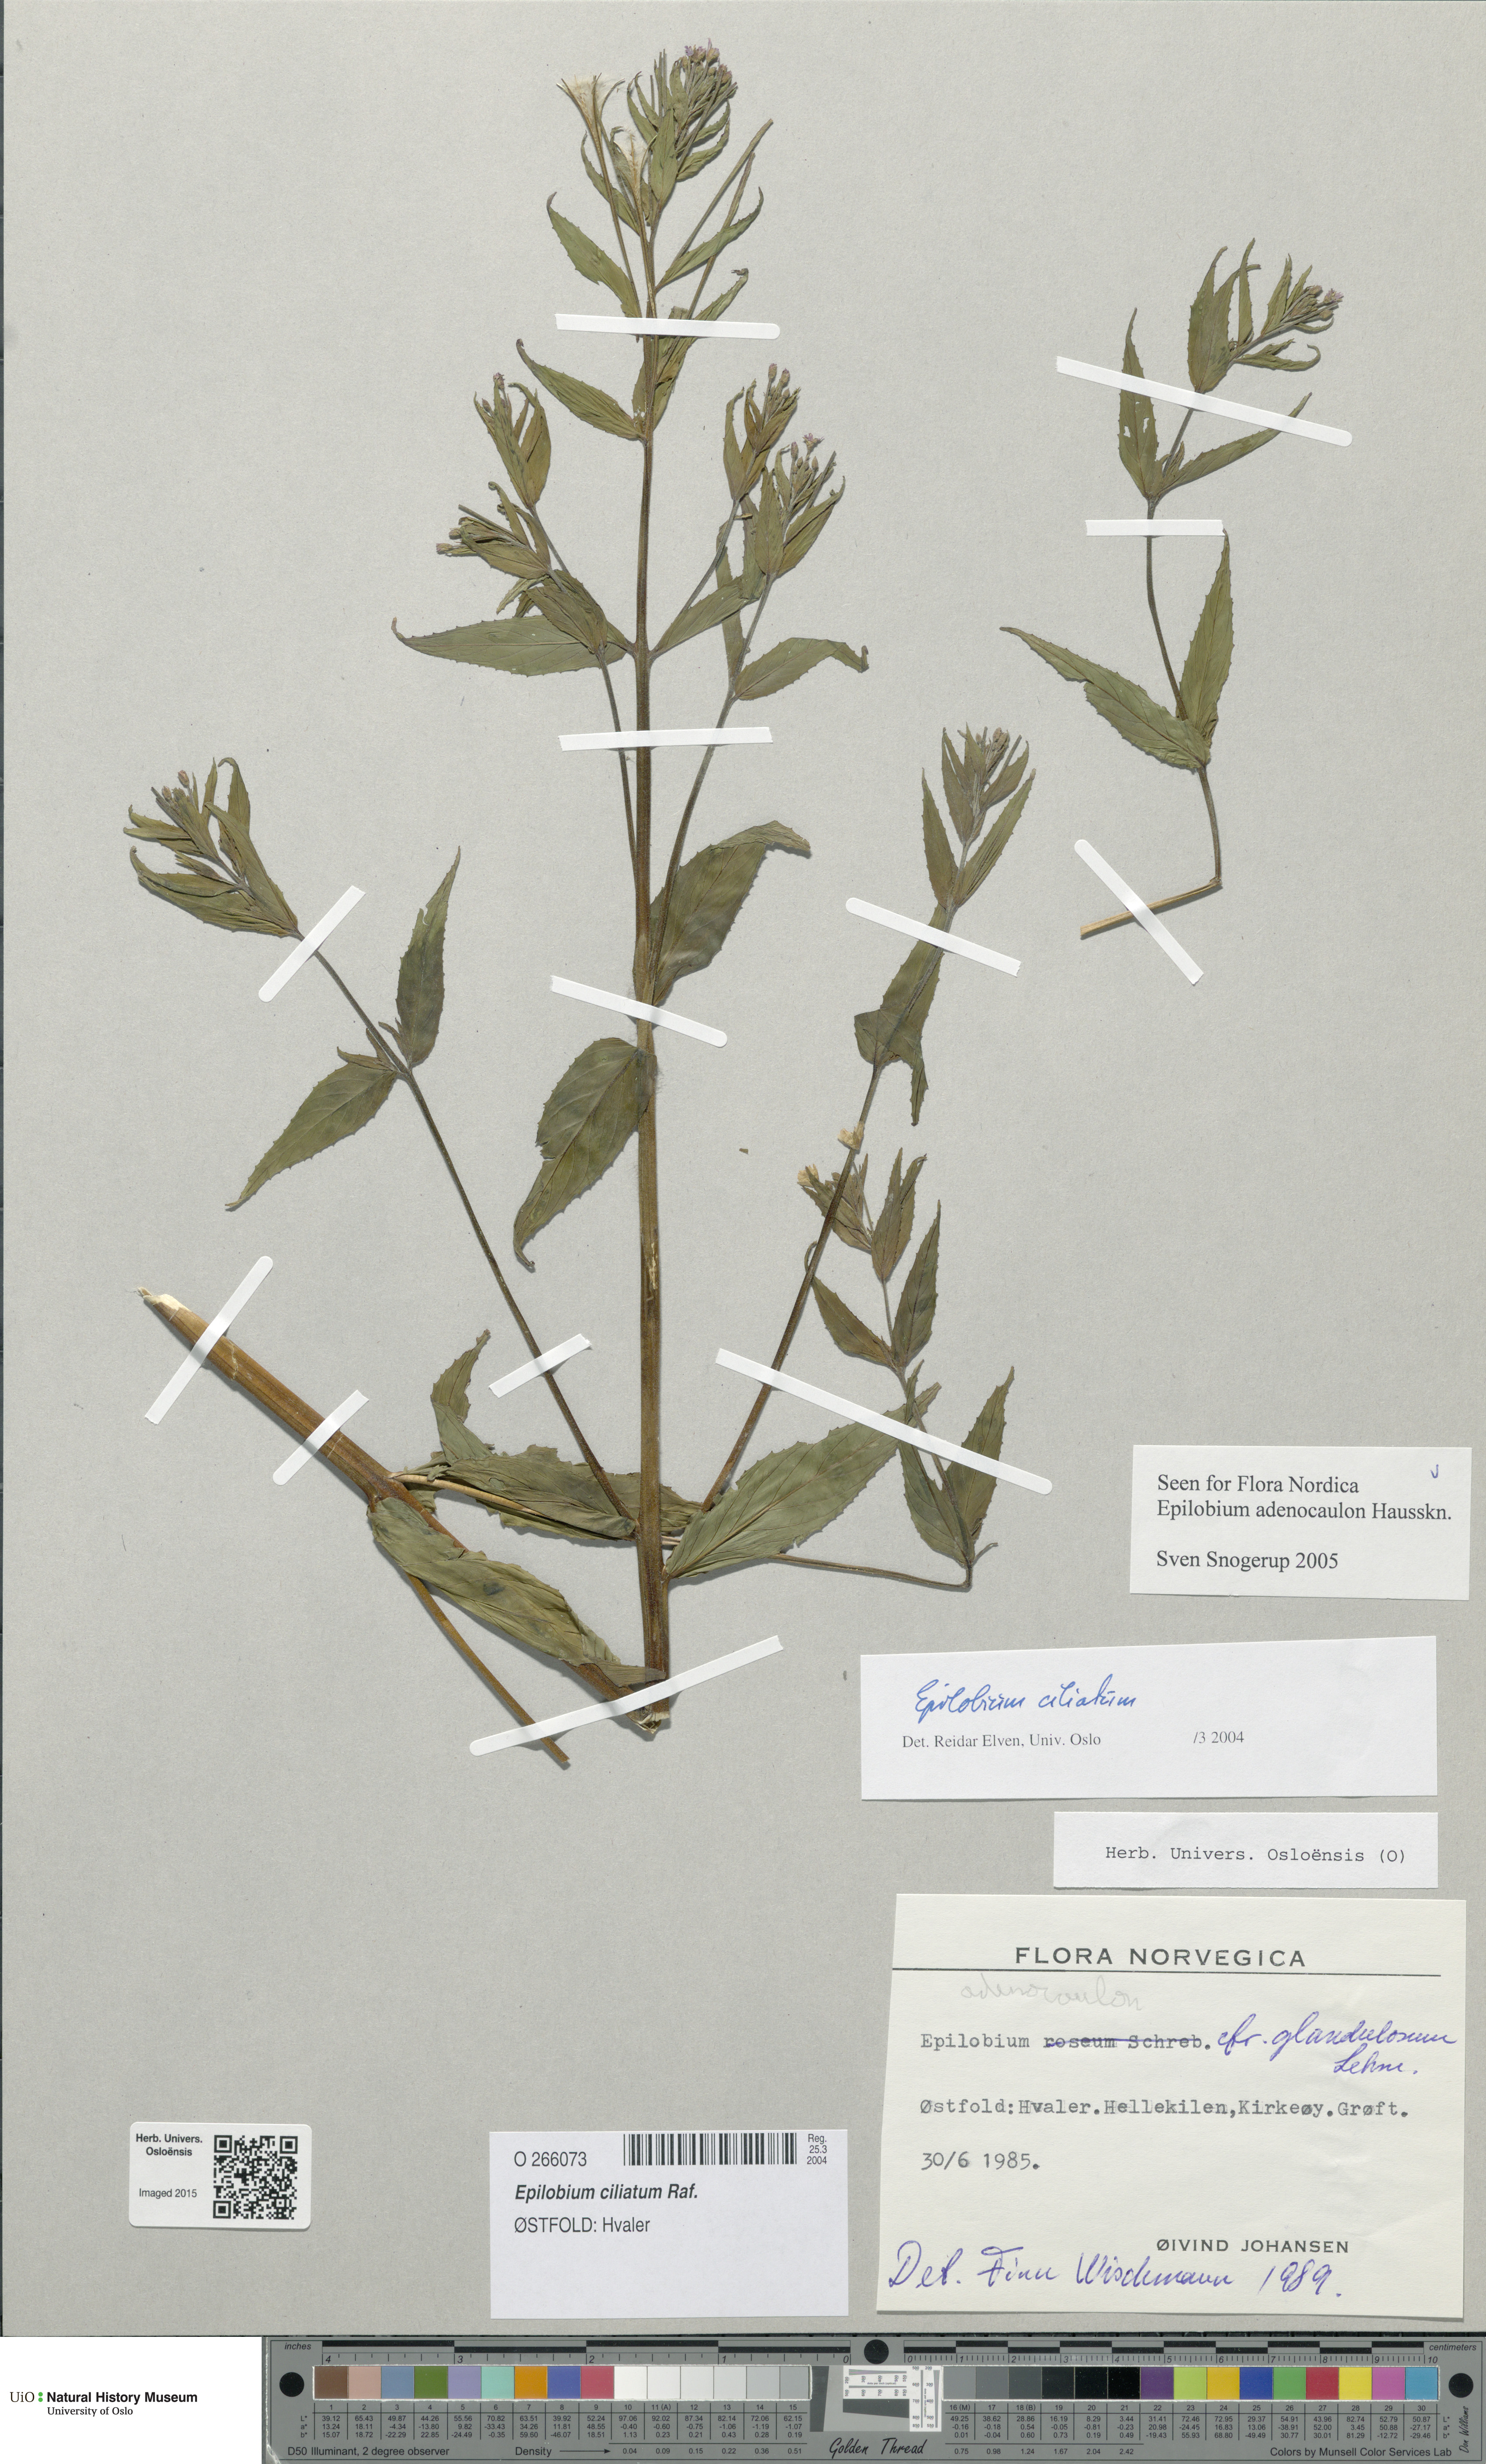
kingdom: Plantae
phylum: Tracheophyta
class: Magnoliopsida
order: Myrtales
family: Onagraceae
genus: Epilobium
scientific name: Epilobium ciliatum
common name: American willowherb
